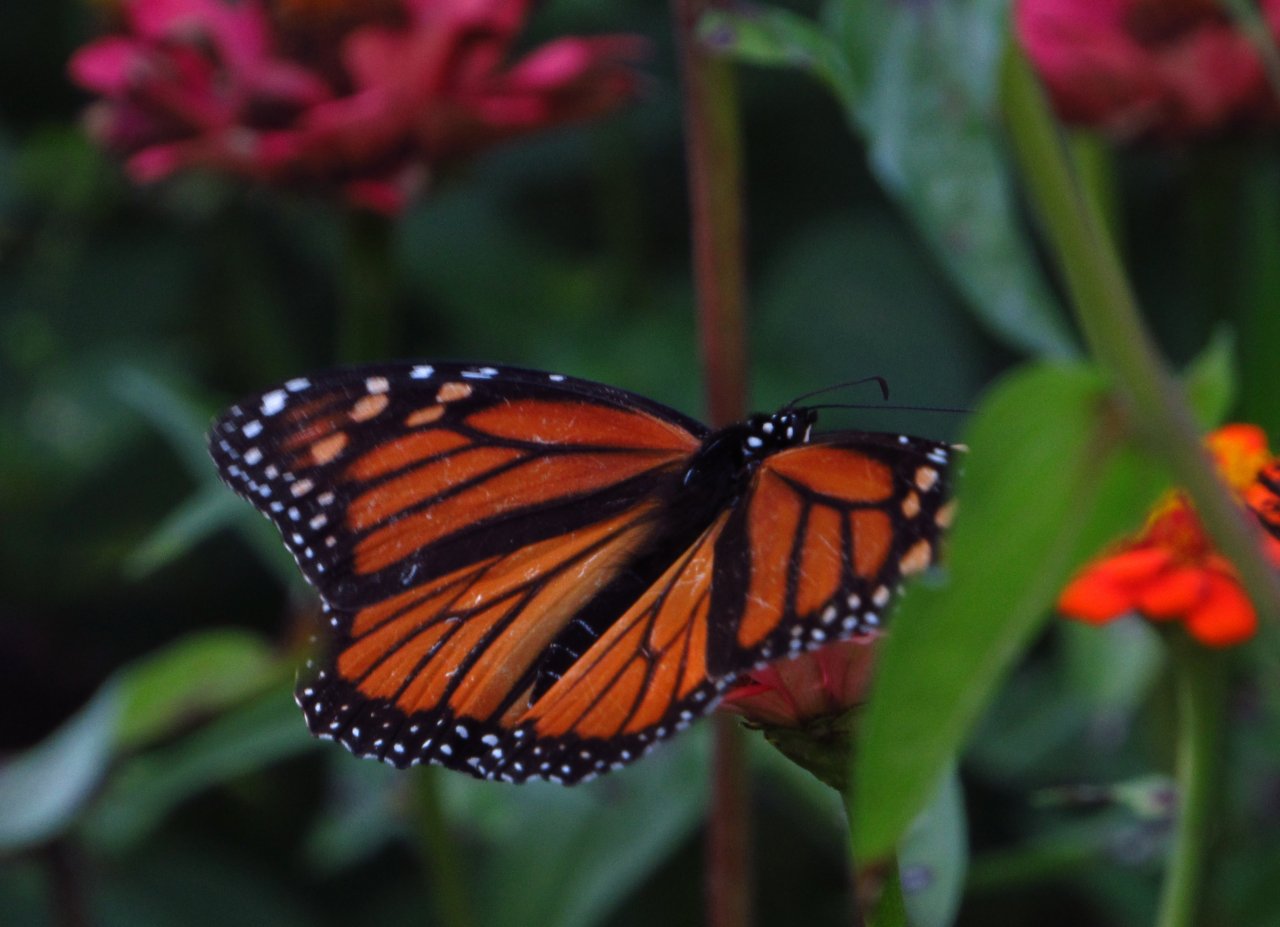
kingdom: Animalia
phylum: Arthropoda
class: Insecta
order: Lepidoptera
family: Nymphalidae
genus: Danaus
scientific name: Danaus plexippus
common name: Monarch
